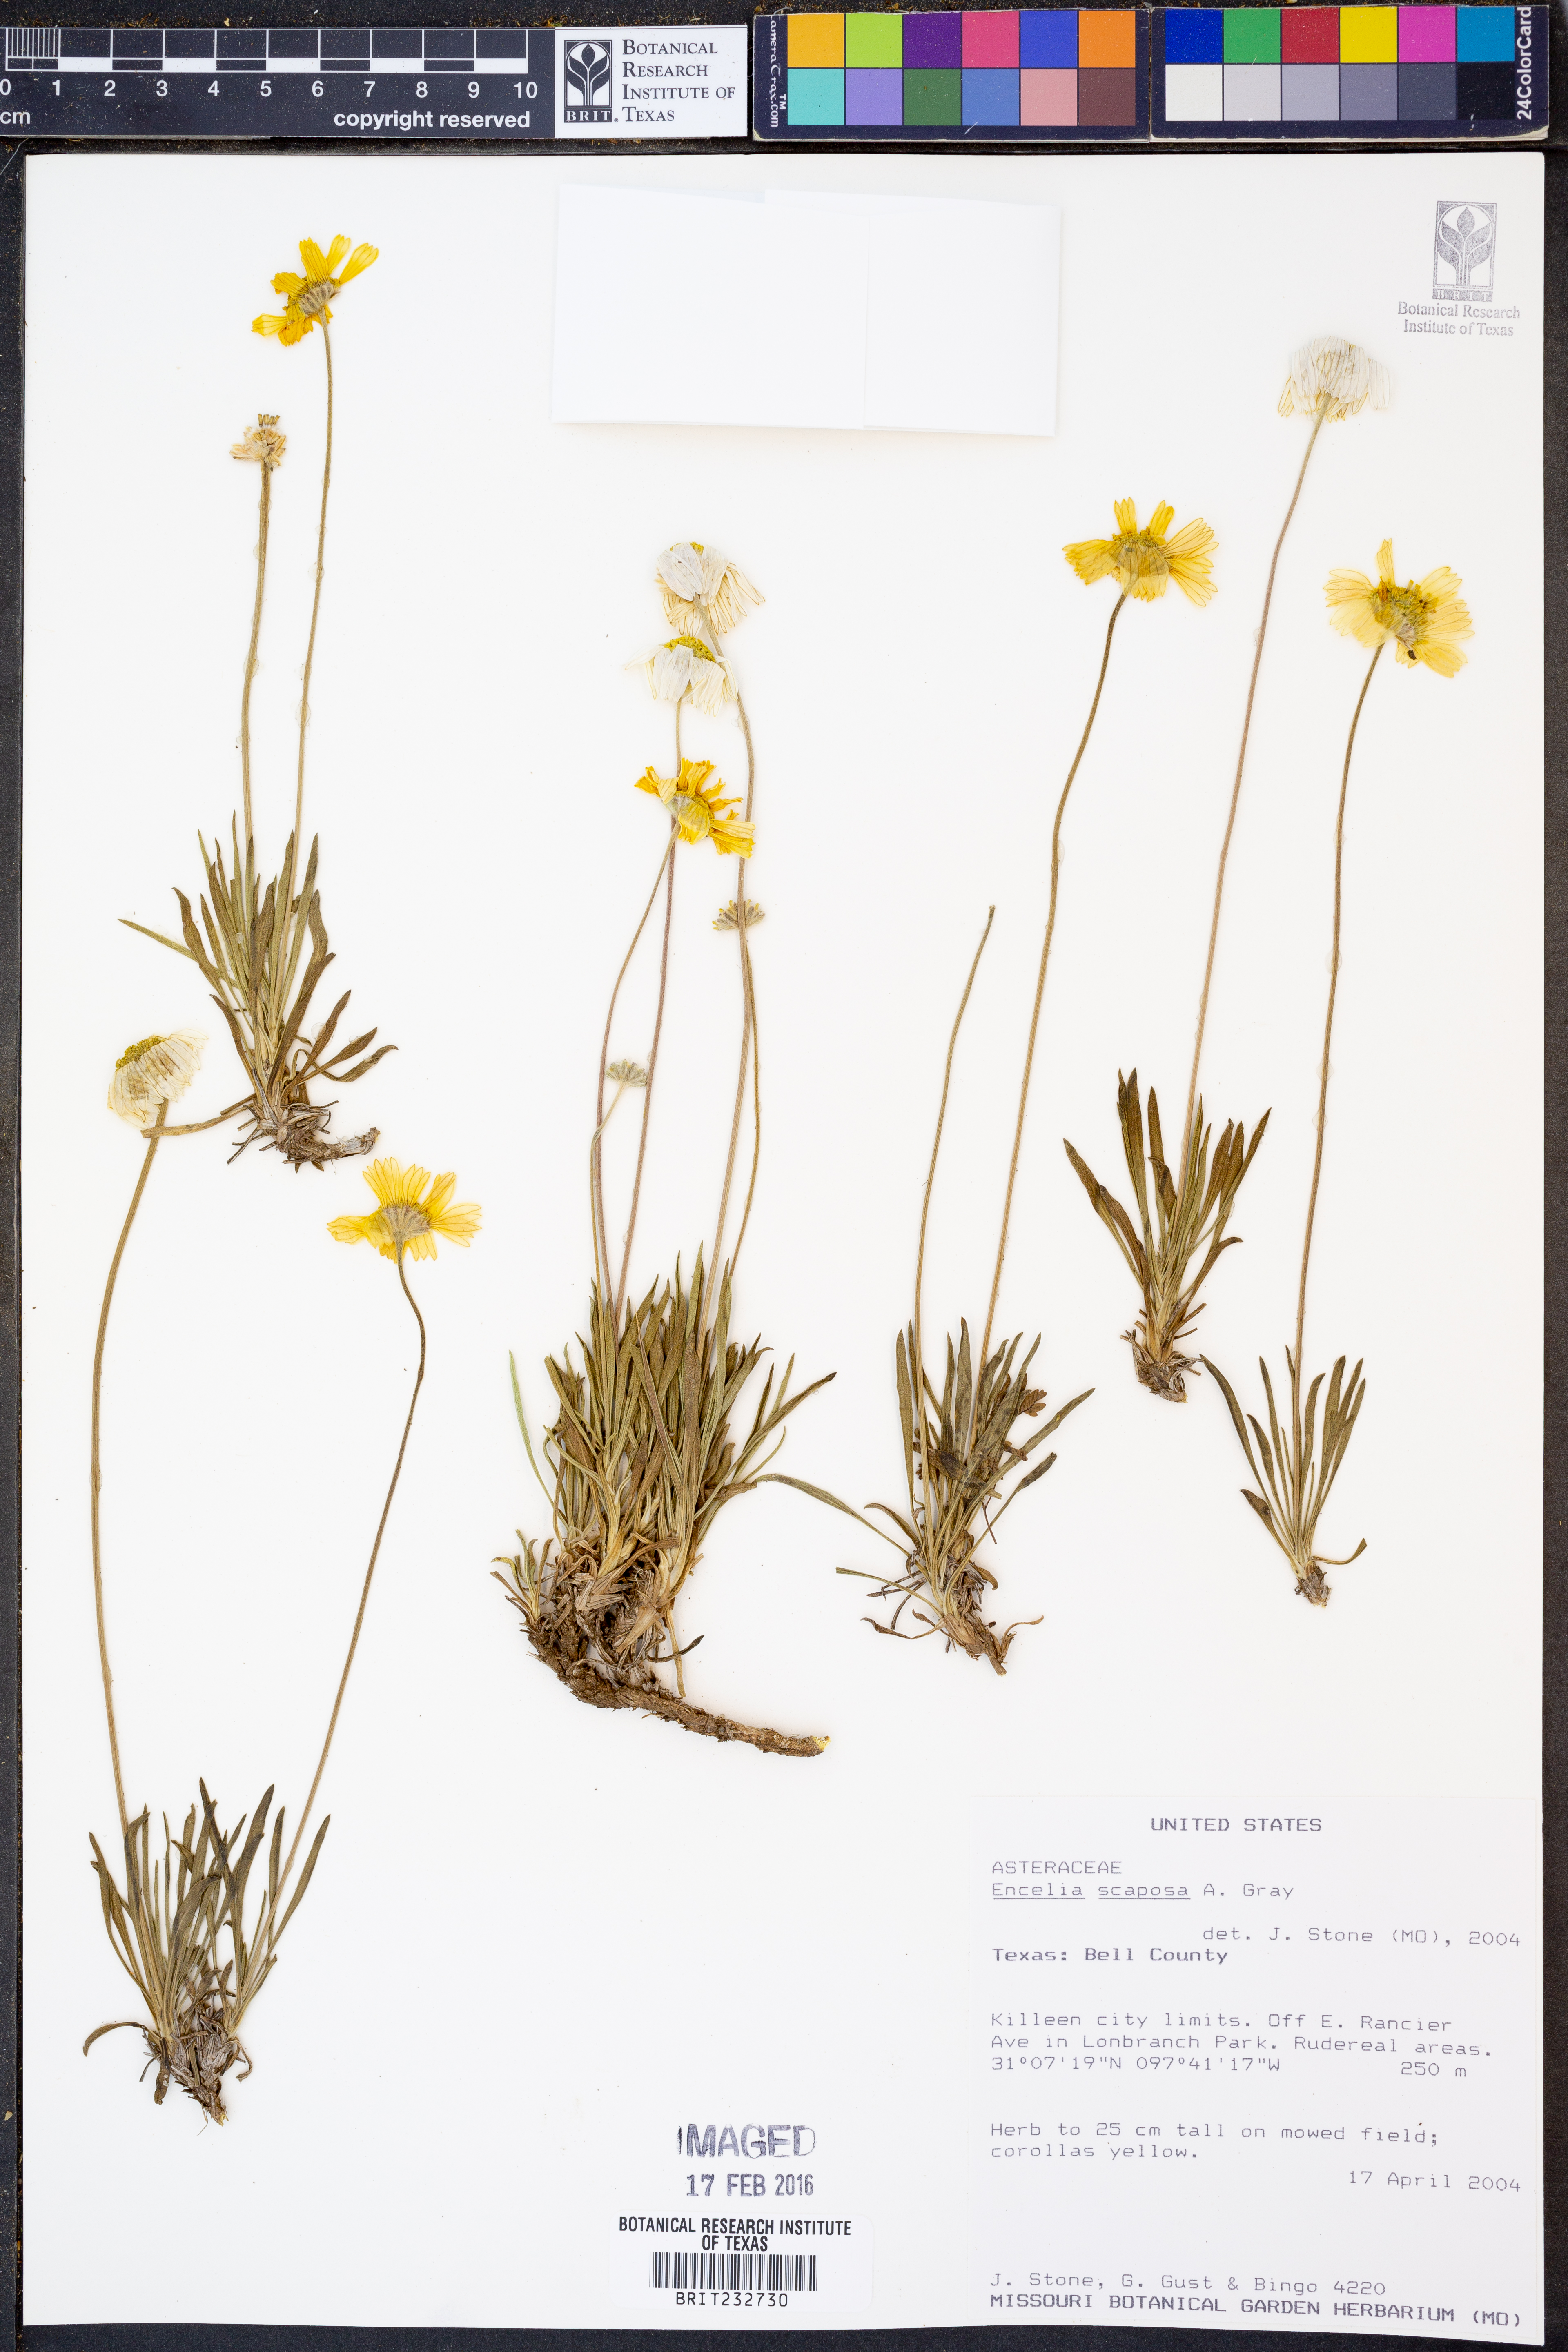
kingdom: Plantae
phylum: Tracheophyta
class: Magnoliopsida
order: Asterales
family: Asteraceae
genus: Encelia
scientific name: Encelia scaposa
